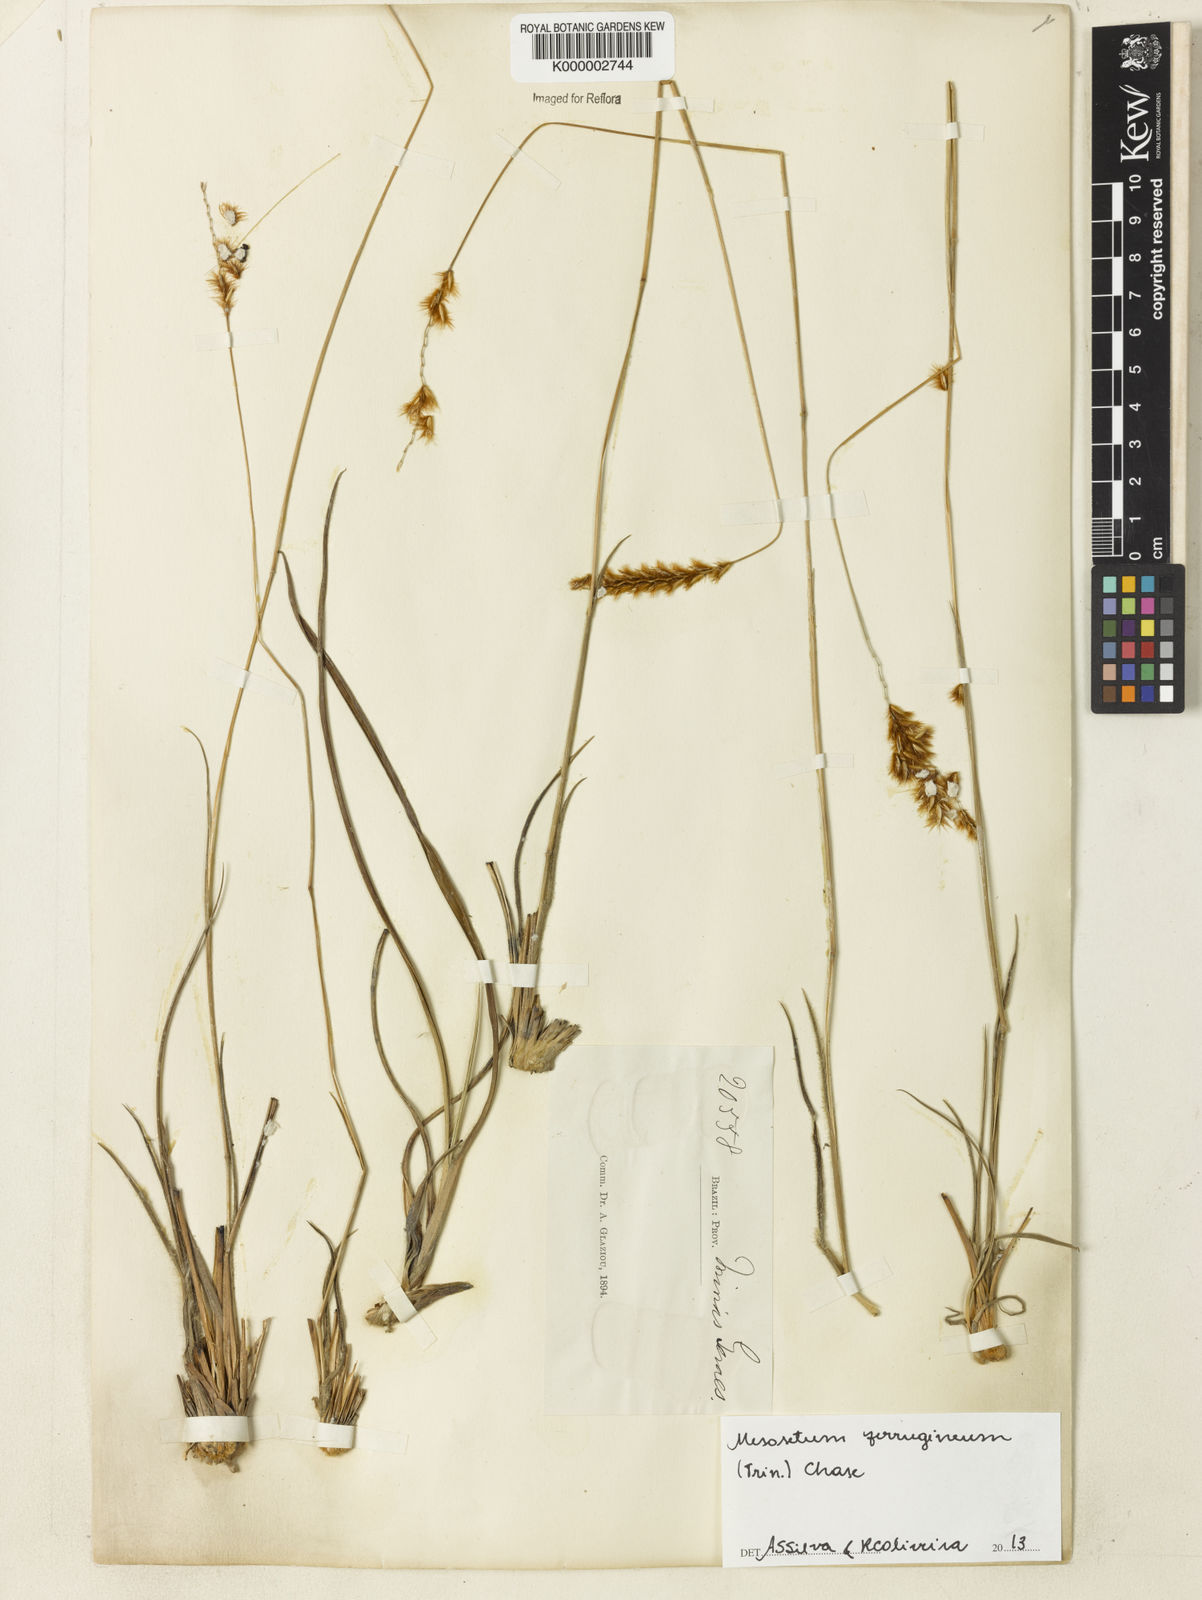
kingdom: Plantae
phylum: Tracheophyta
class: Liliopsida
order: Poales
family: Poaceae
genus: Mesosetum
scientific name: Mesosetum ferrugineum
